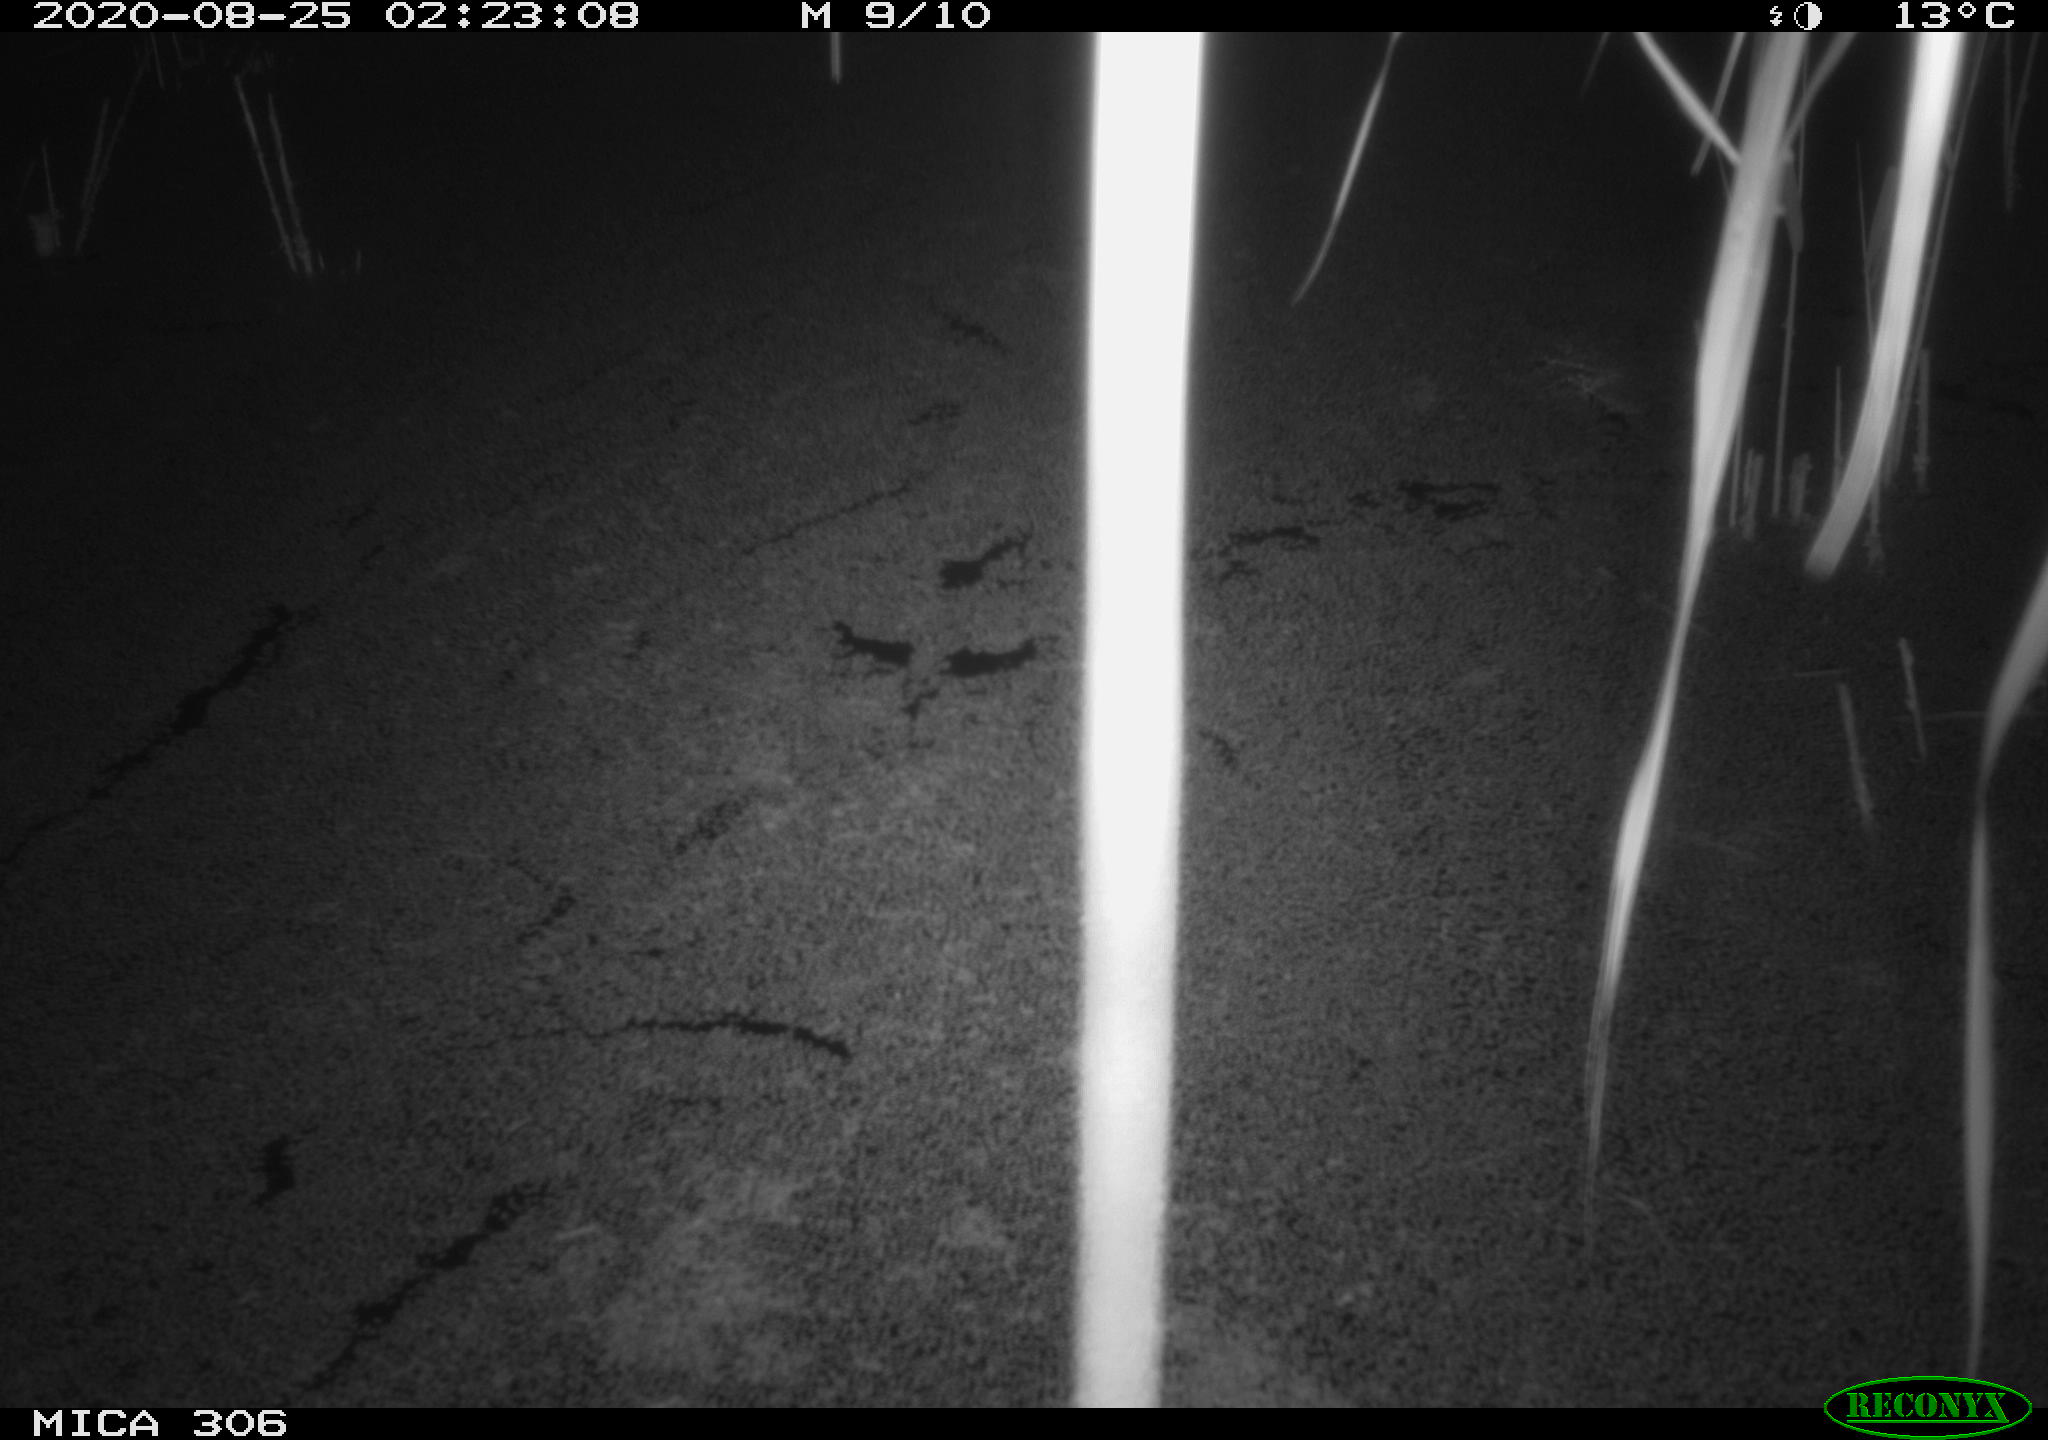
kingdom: Animalia
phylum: Chordata
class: Mammalia
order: Rodentia
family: Muridae
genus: Rattus
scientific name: Rattus norvegicus
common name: Brown rat
